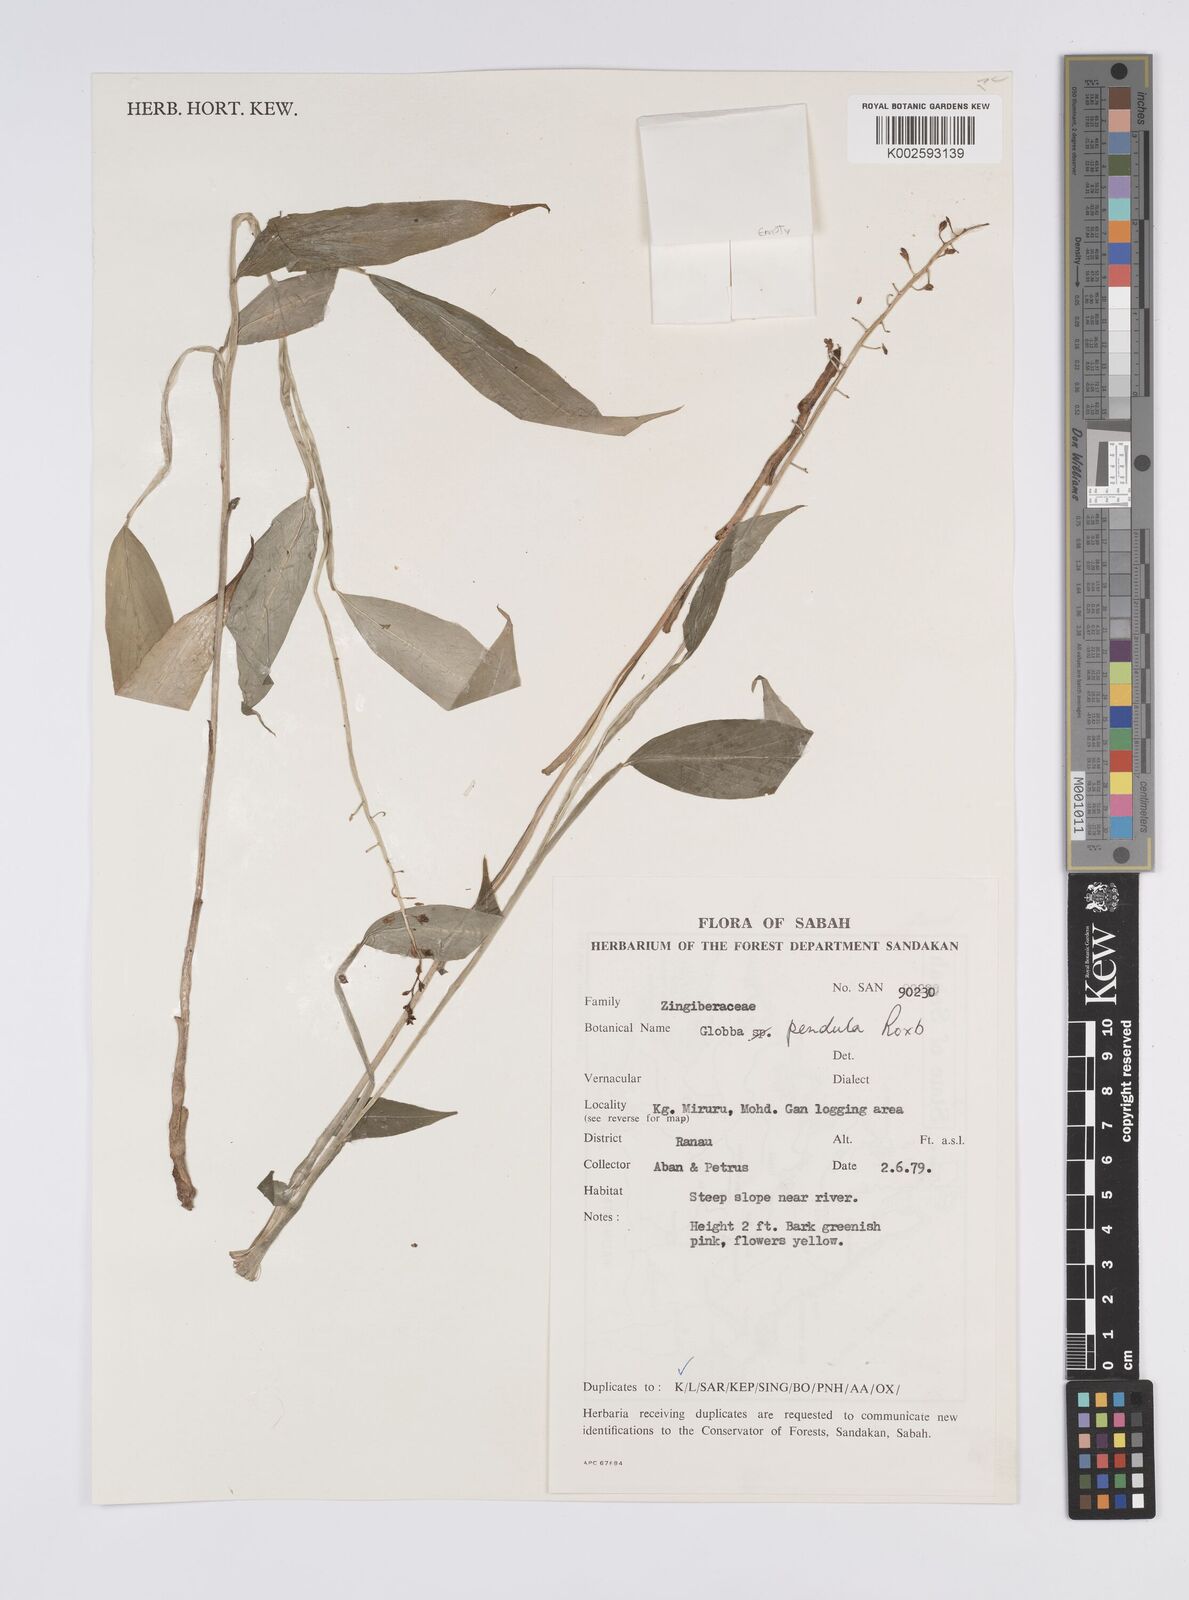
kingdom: Plantae
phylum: Tracheophyta
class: Liliopsida
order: Zingiberales
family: Zingiberaceae
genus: Globba
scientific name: Globba pendula
